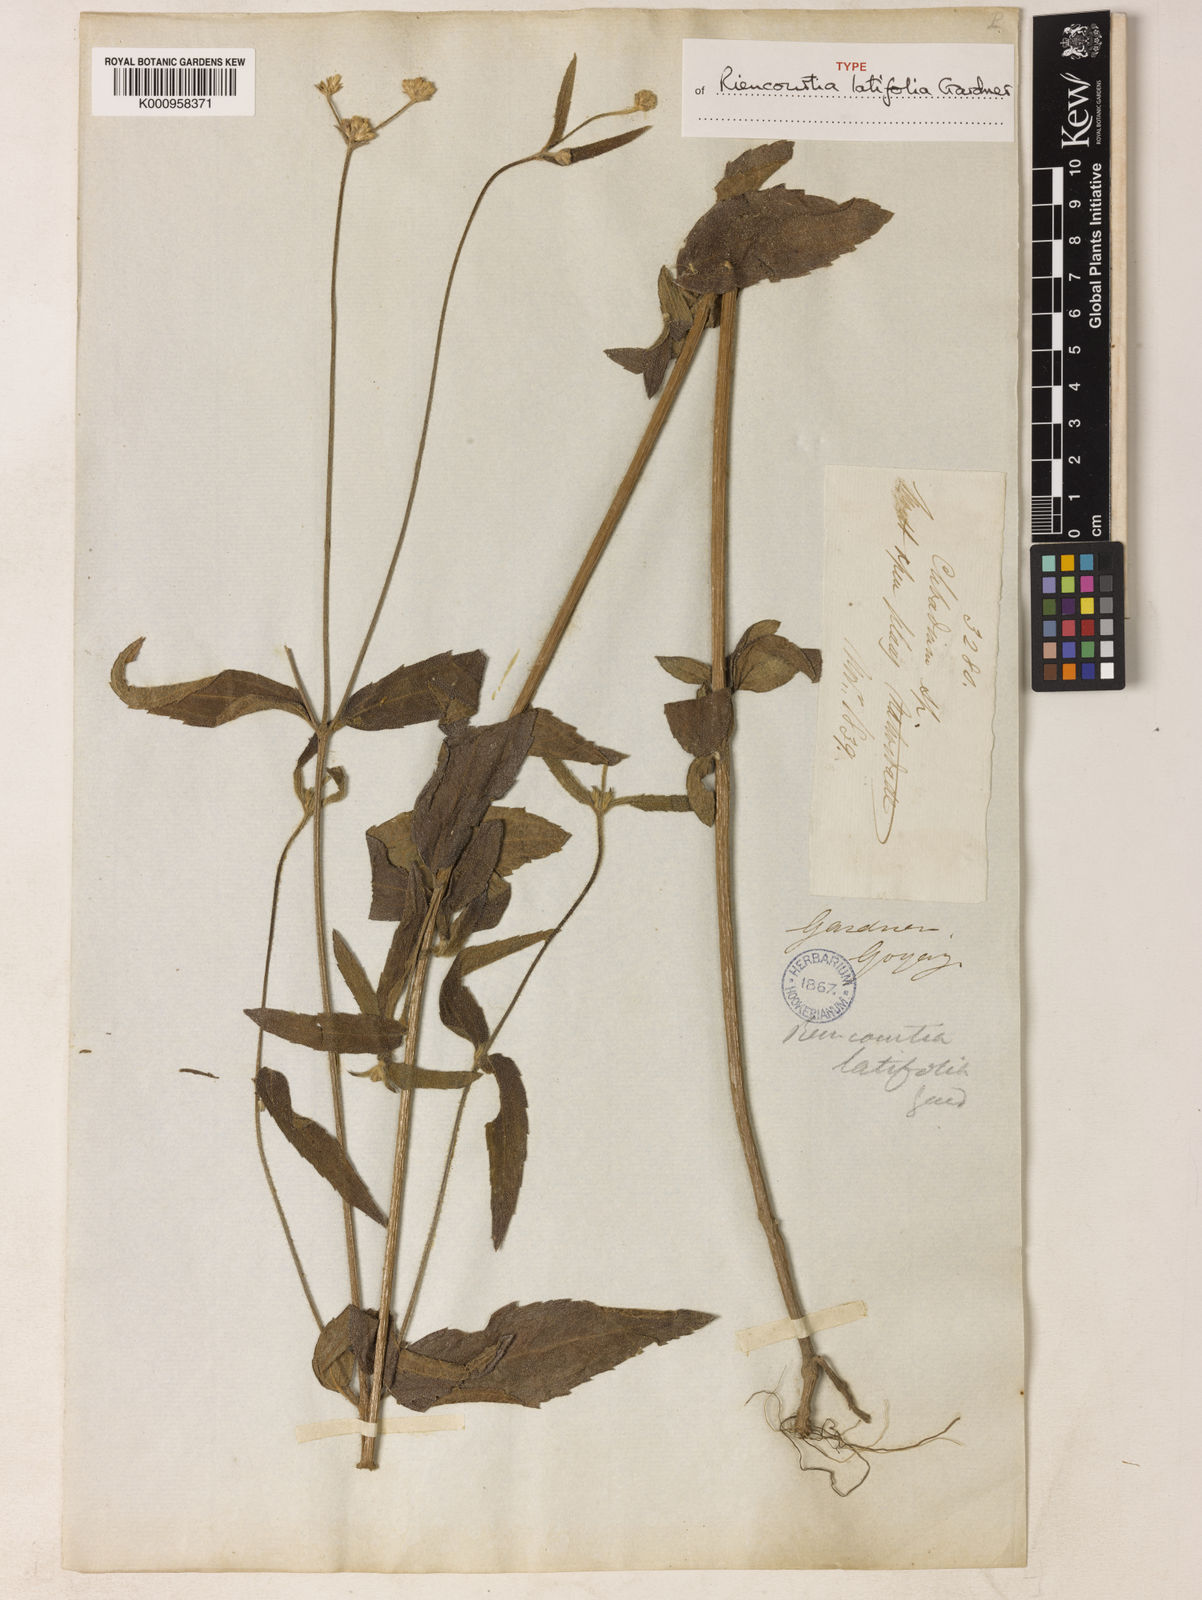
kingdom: Plantae
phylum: Tracheophyta
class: Magnoliopsida
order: Asterales
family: Asteraceae
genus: Riencourtia
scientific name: Riencourtia latifolia
